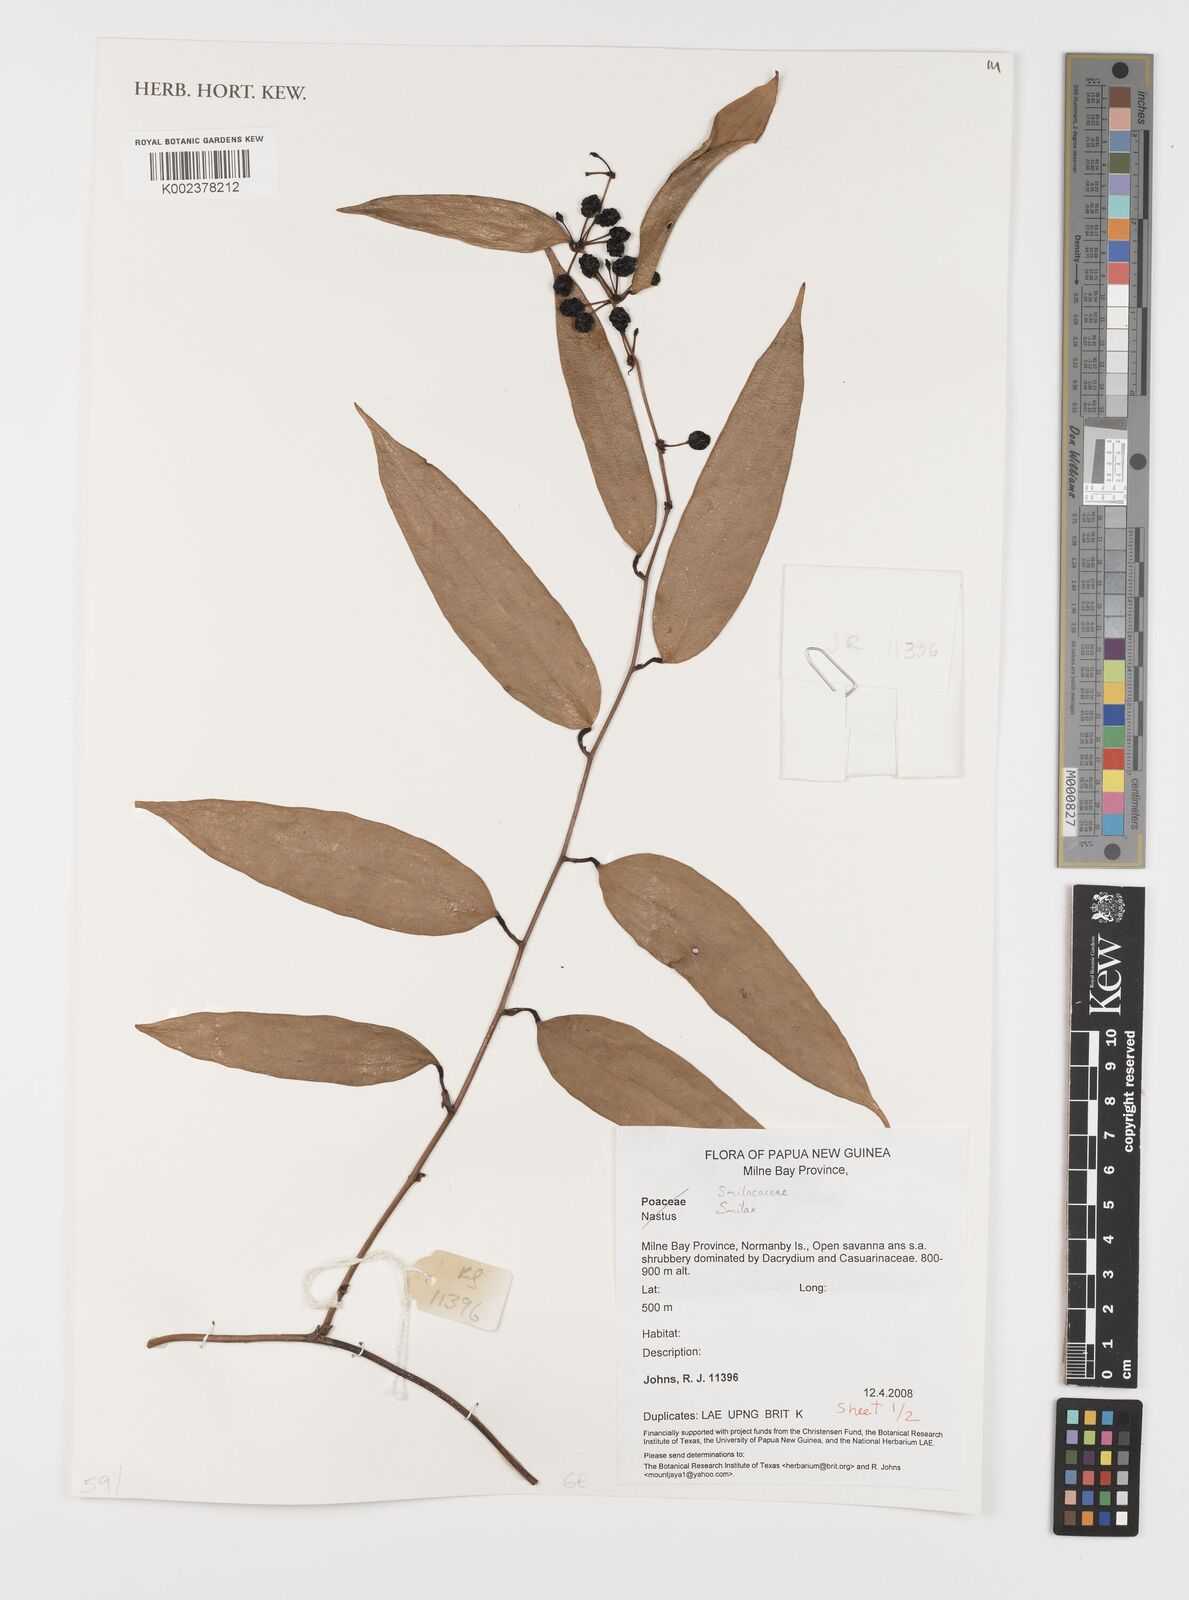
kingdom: Plantae
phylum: Tracheophyta
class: Liliopsida
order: Liliales
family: Smilacaceae
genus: Smilax
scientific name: Smilax
